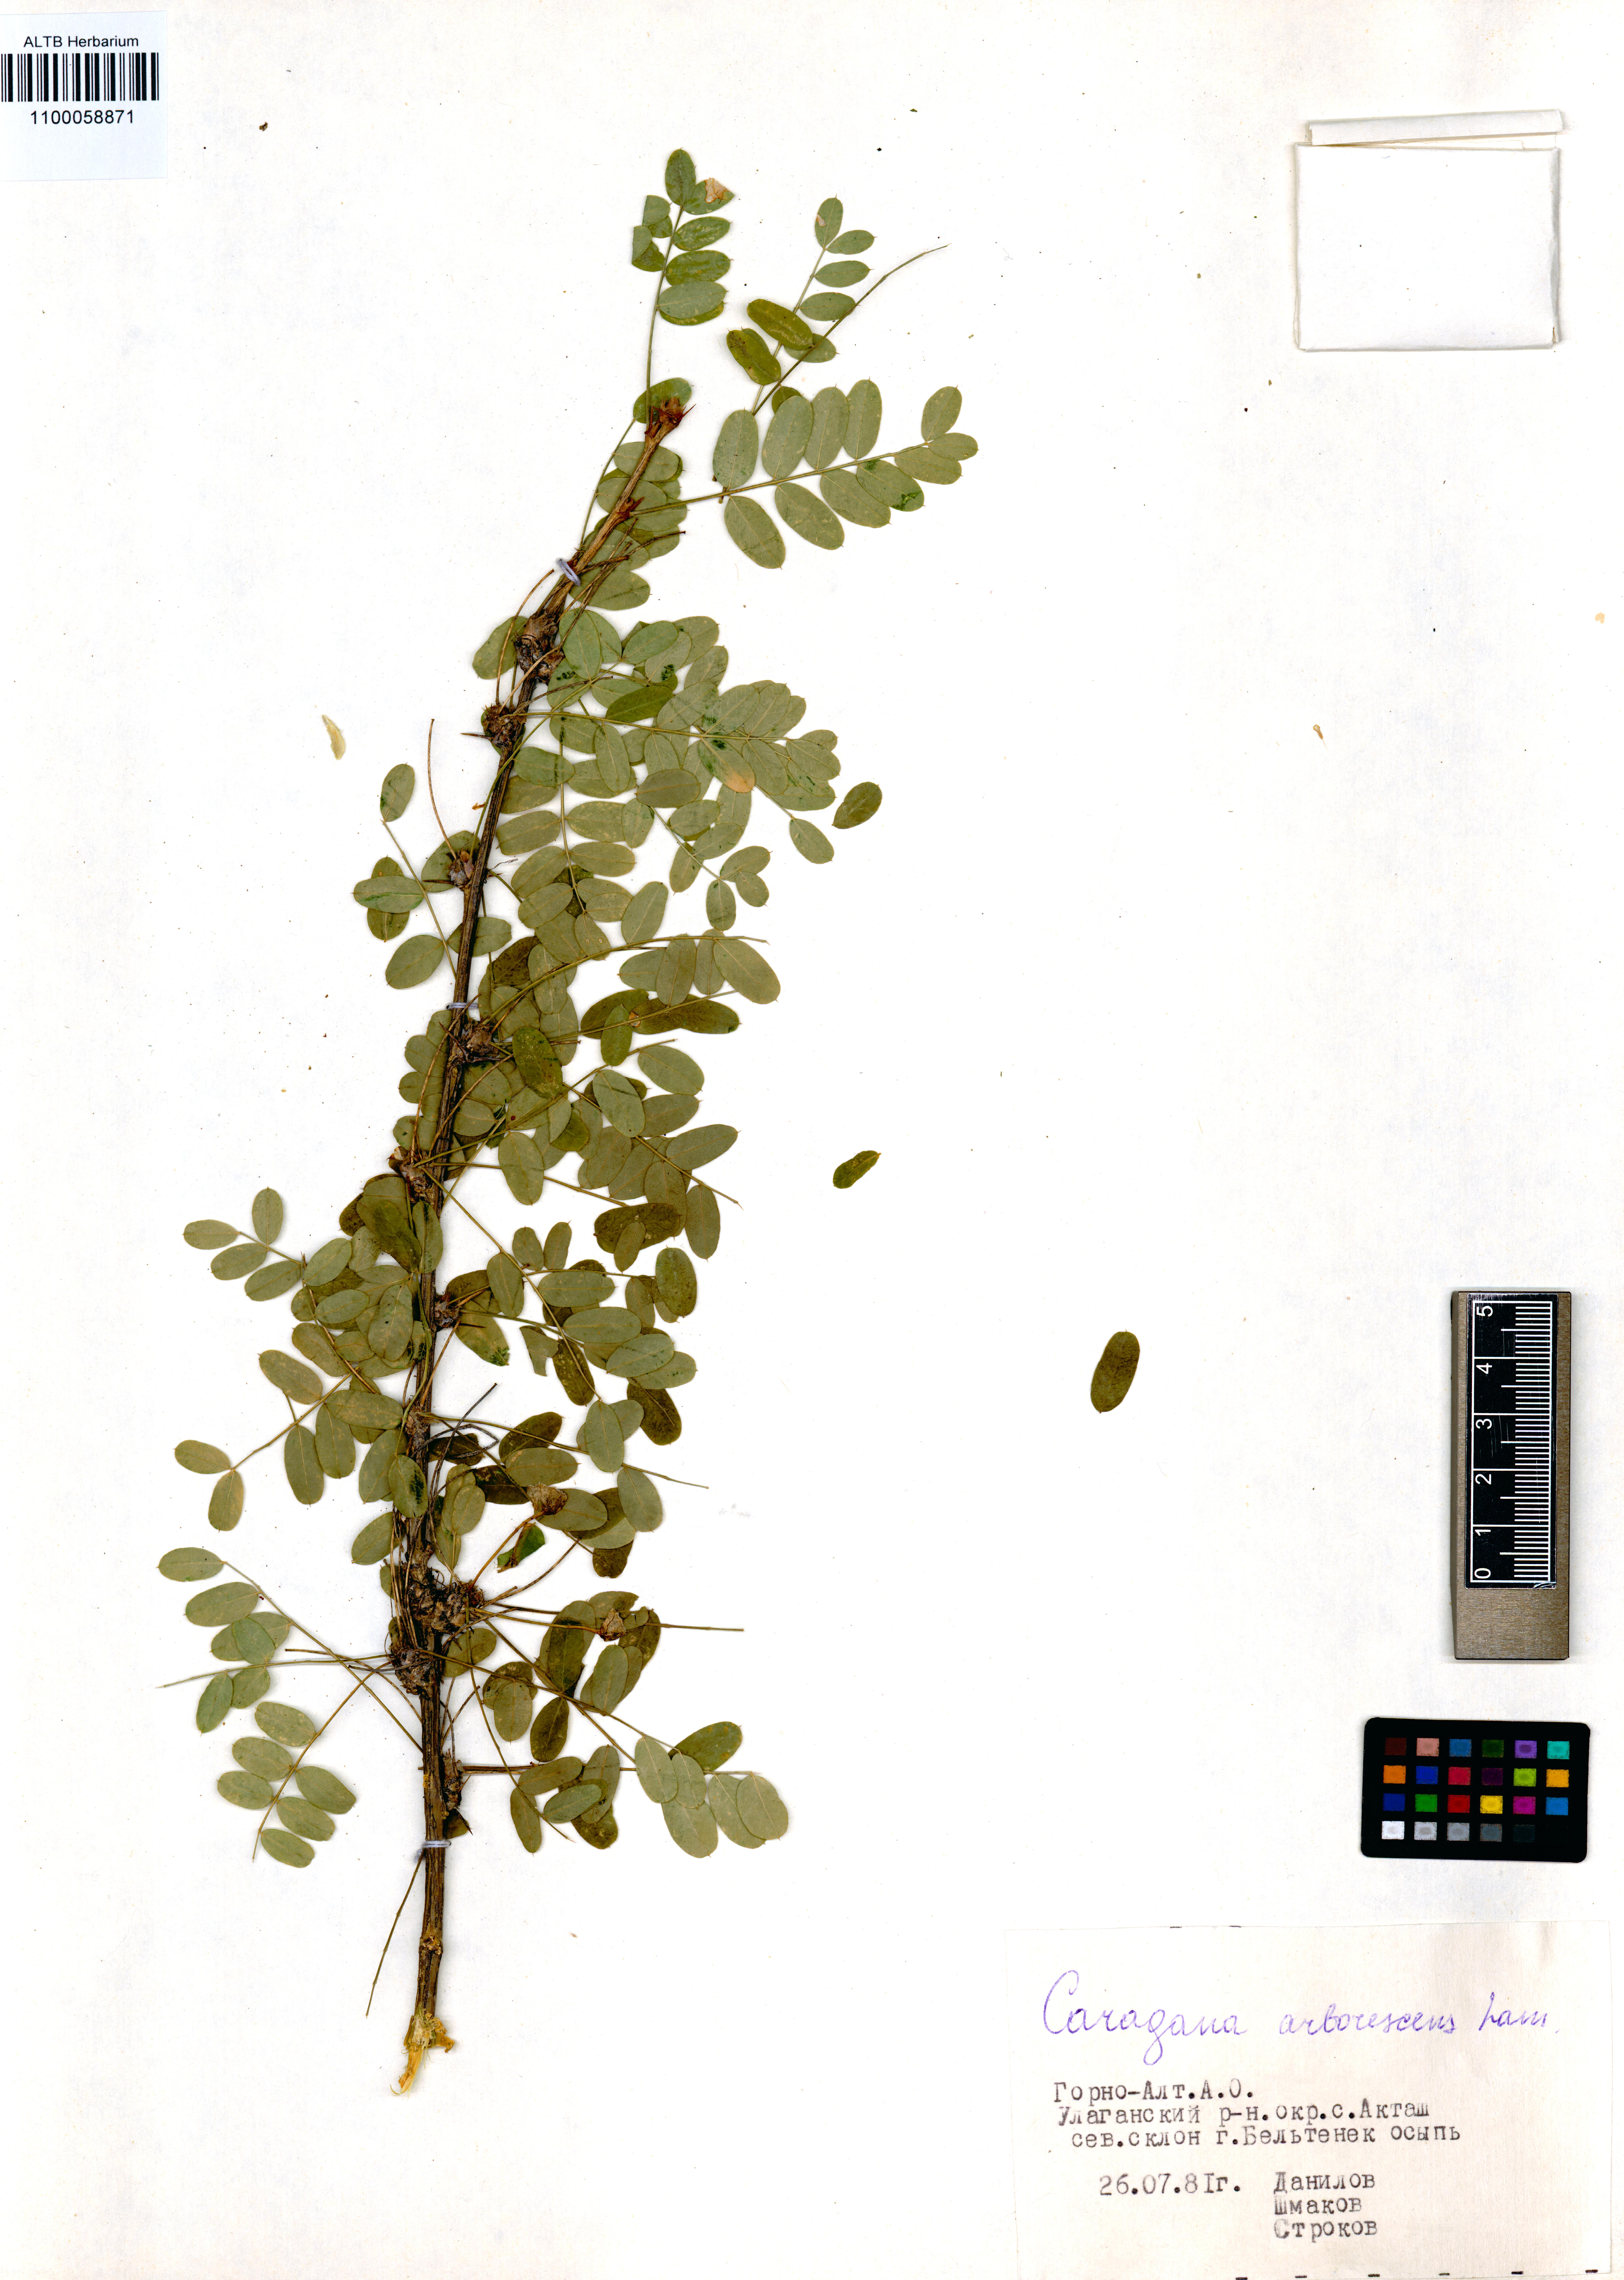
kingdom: Plantae
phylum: Tracheophyta
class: Magnoliopsida
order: Fabales
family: Fabaceae
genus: Caragana
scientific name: Caragana arborescens
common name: Siberian peashrub
